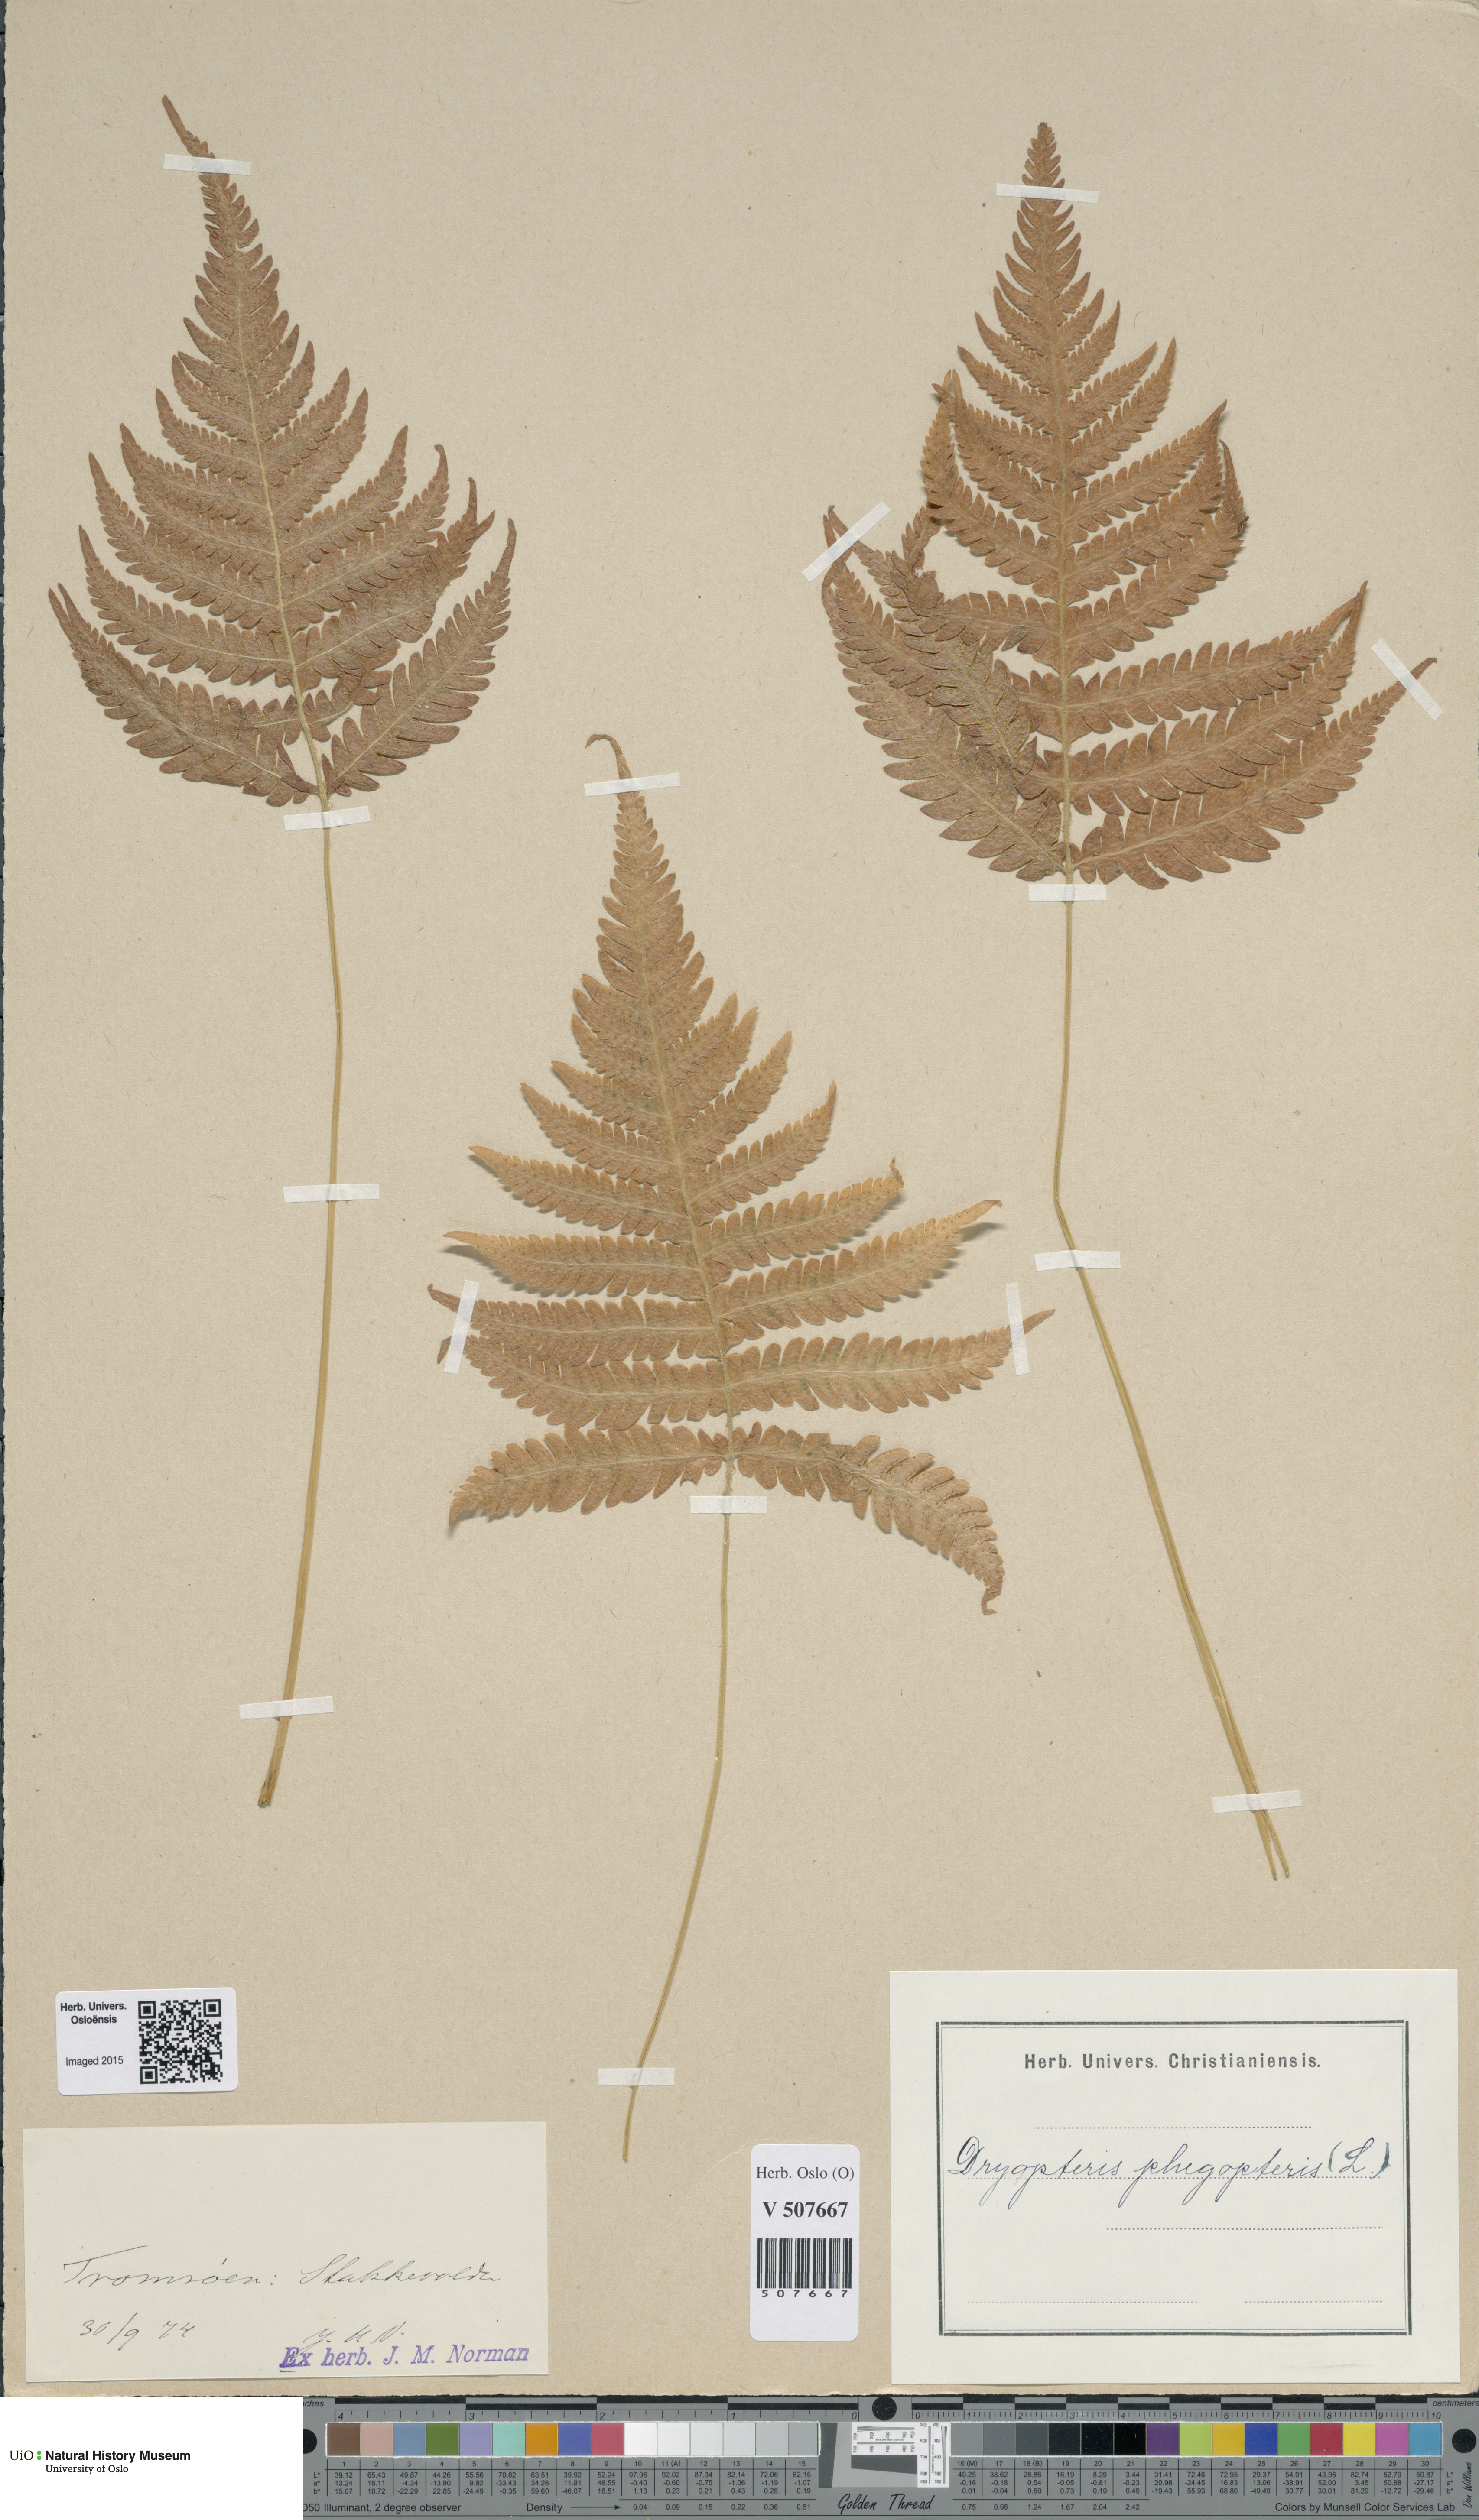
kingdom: Plantae
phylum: Tracheophyta
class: Polypodiopsida
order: Polypodiales
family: Thelypteridaceae
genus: Phegopteris
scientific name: Phegopteris connectilis
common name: Beech fern
